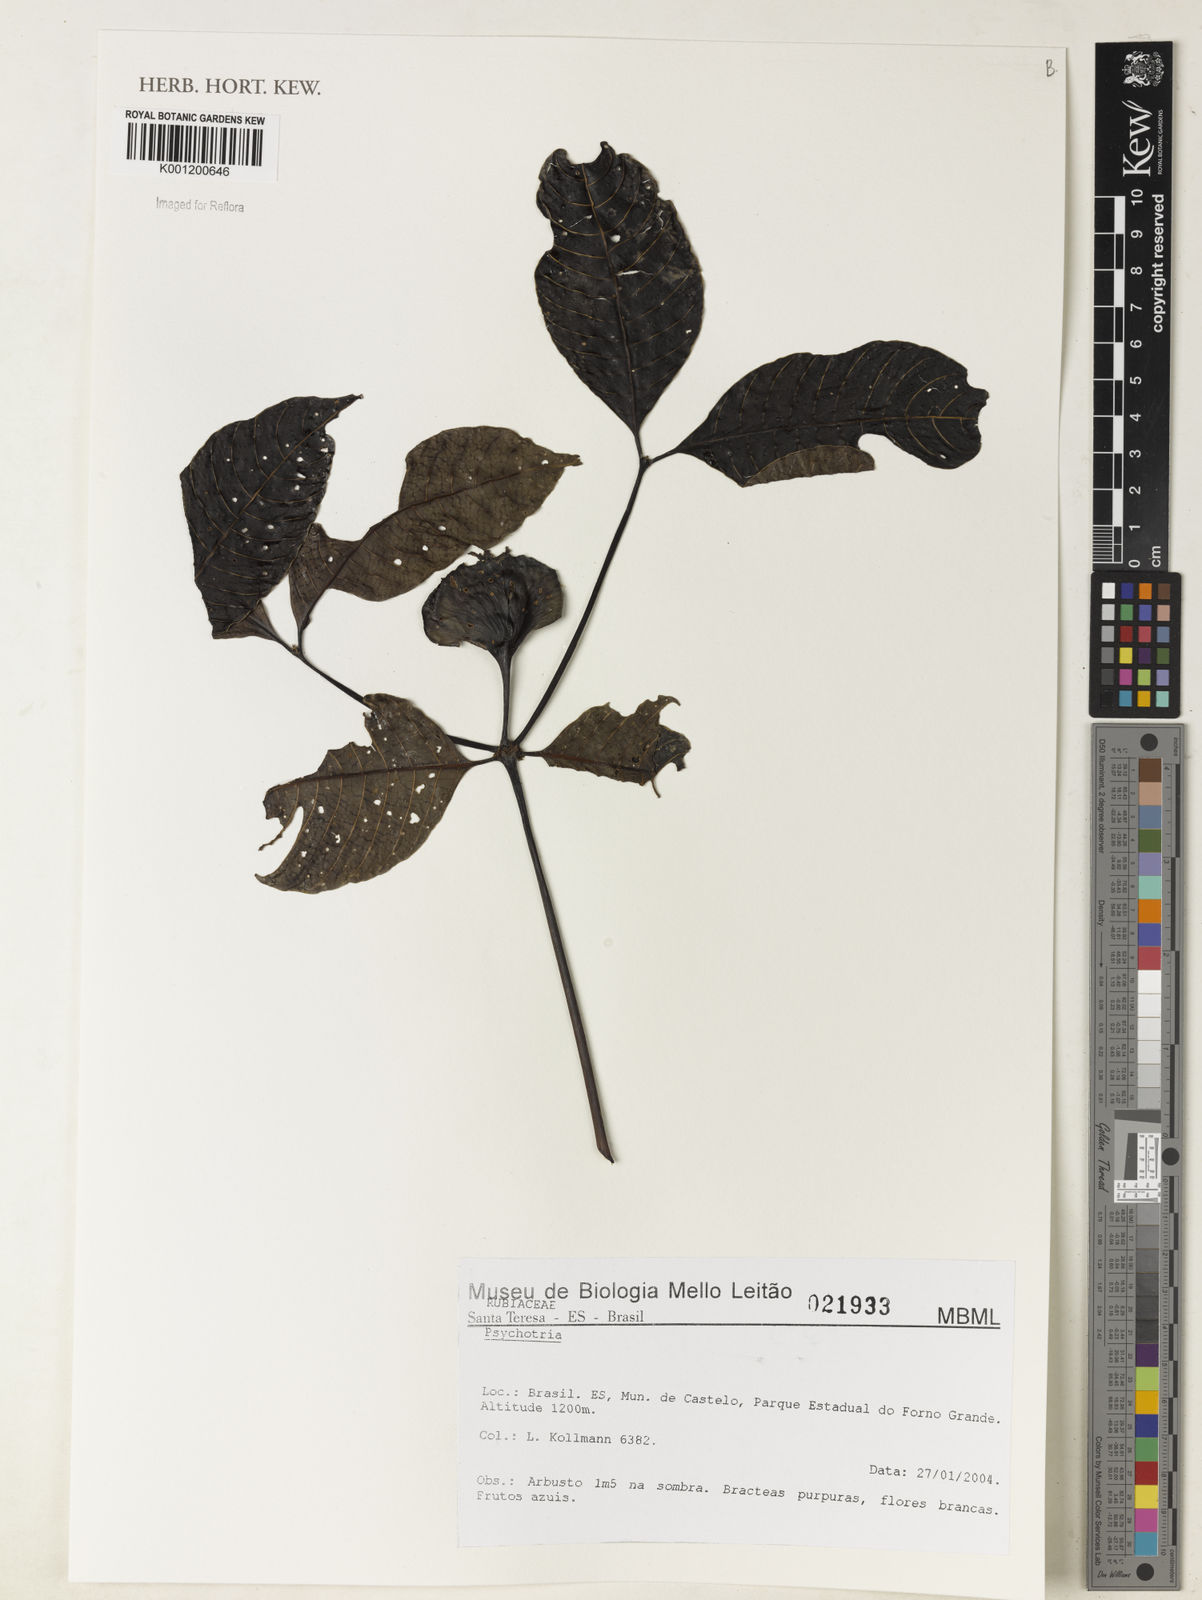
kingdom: Plantae
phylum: Tracheophyta
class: Magnoliopsida
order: Gentianales
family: Rubiaceae
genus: Psychotria
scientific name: Psychotria
